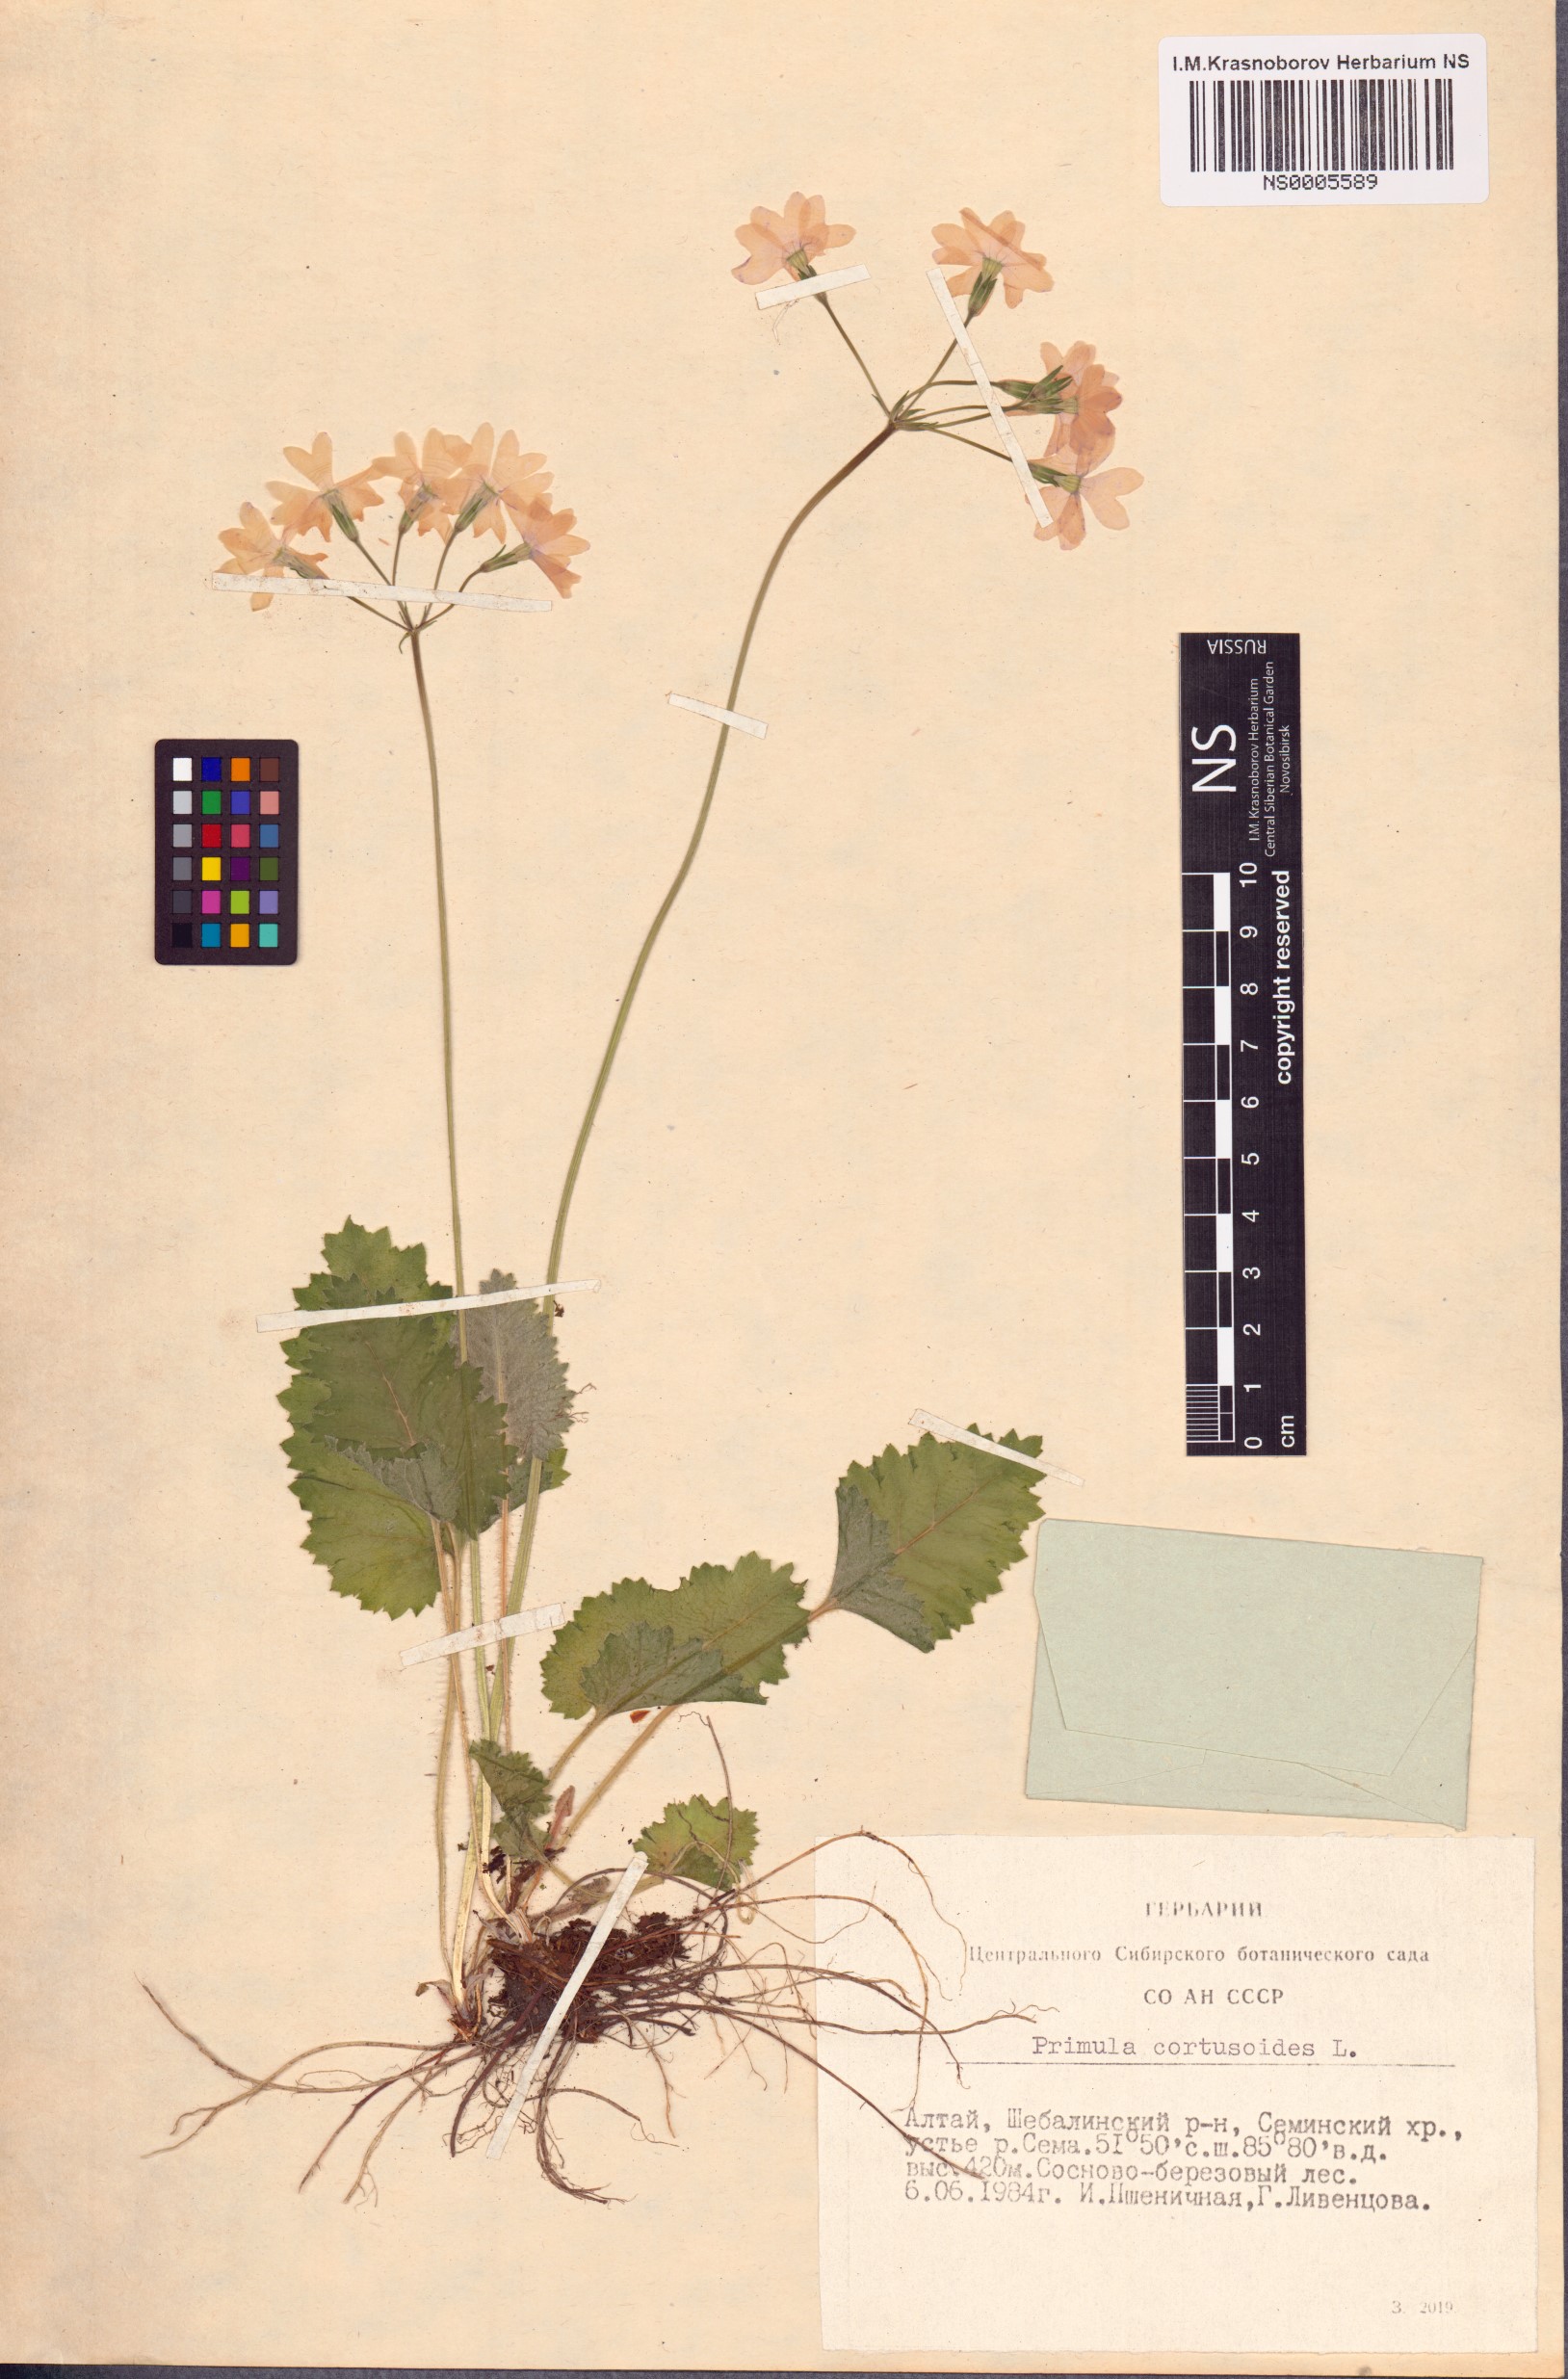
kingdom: Plantae
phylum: Tracheophyta
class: Magnoliopsida
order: Ericales
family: Primulaceae
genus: Primula
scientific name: Primula cortusoides
